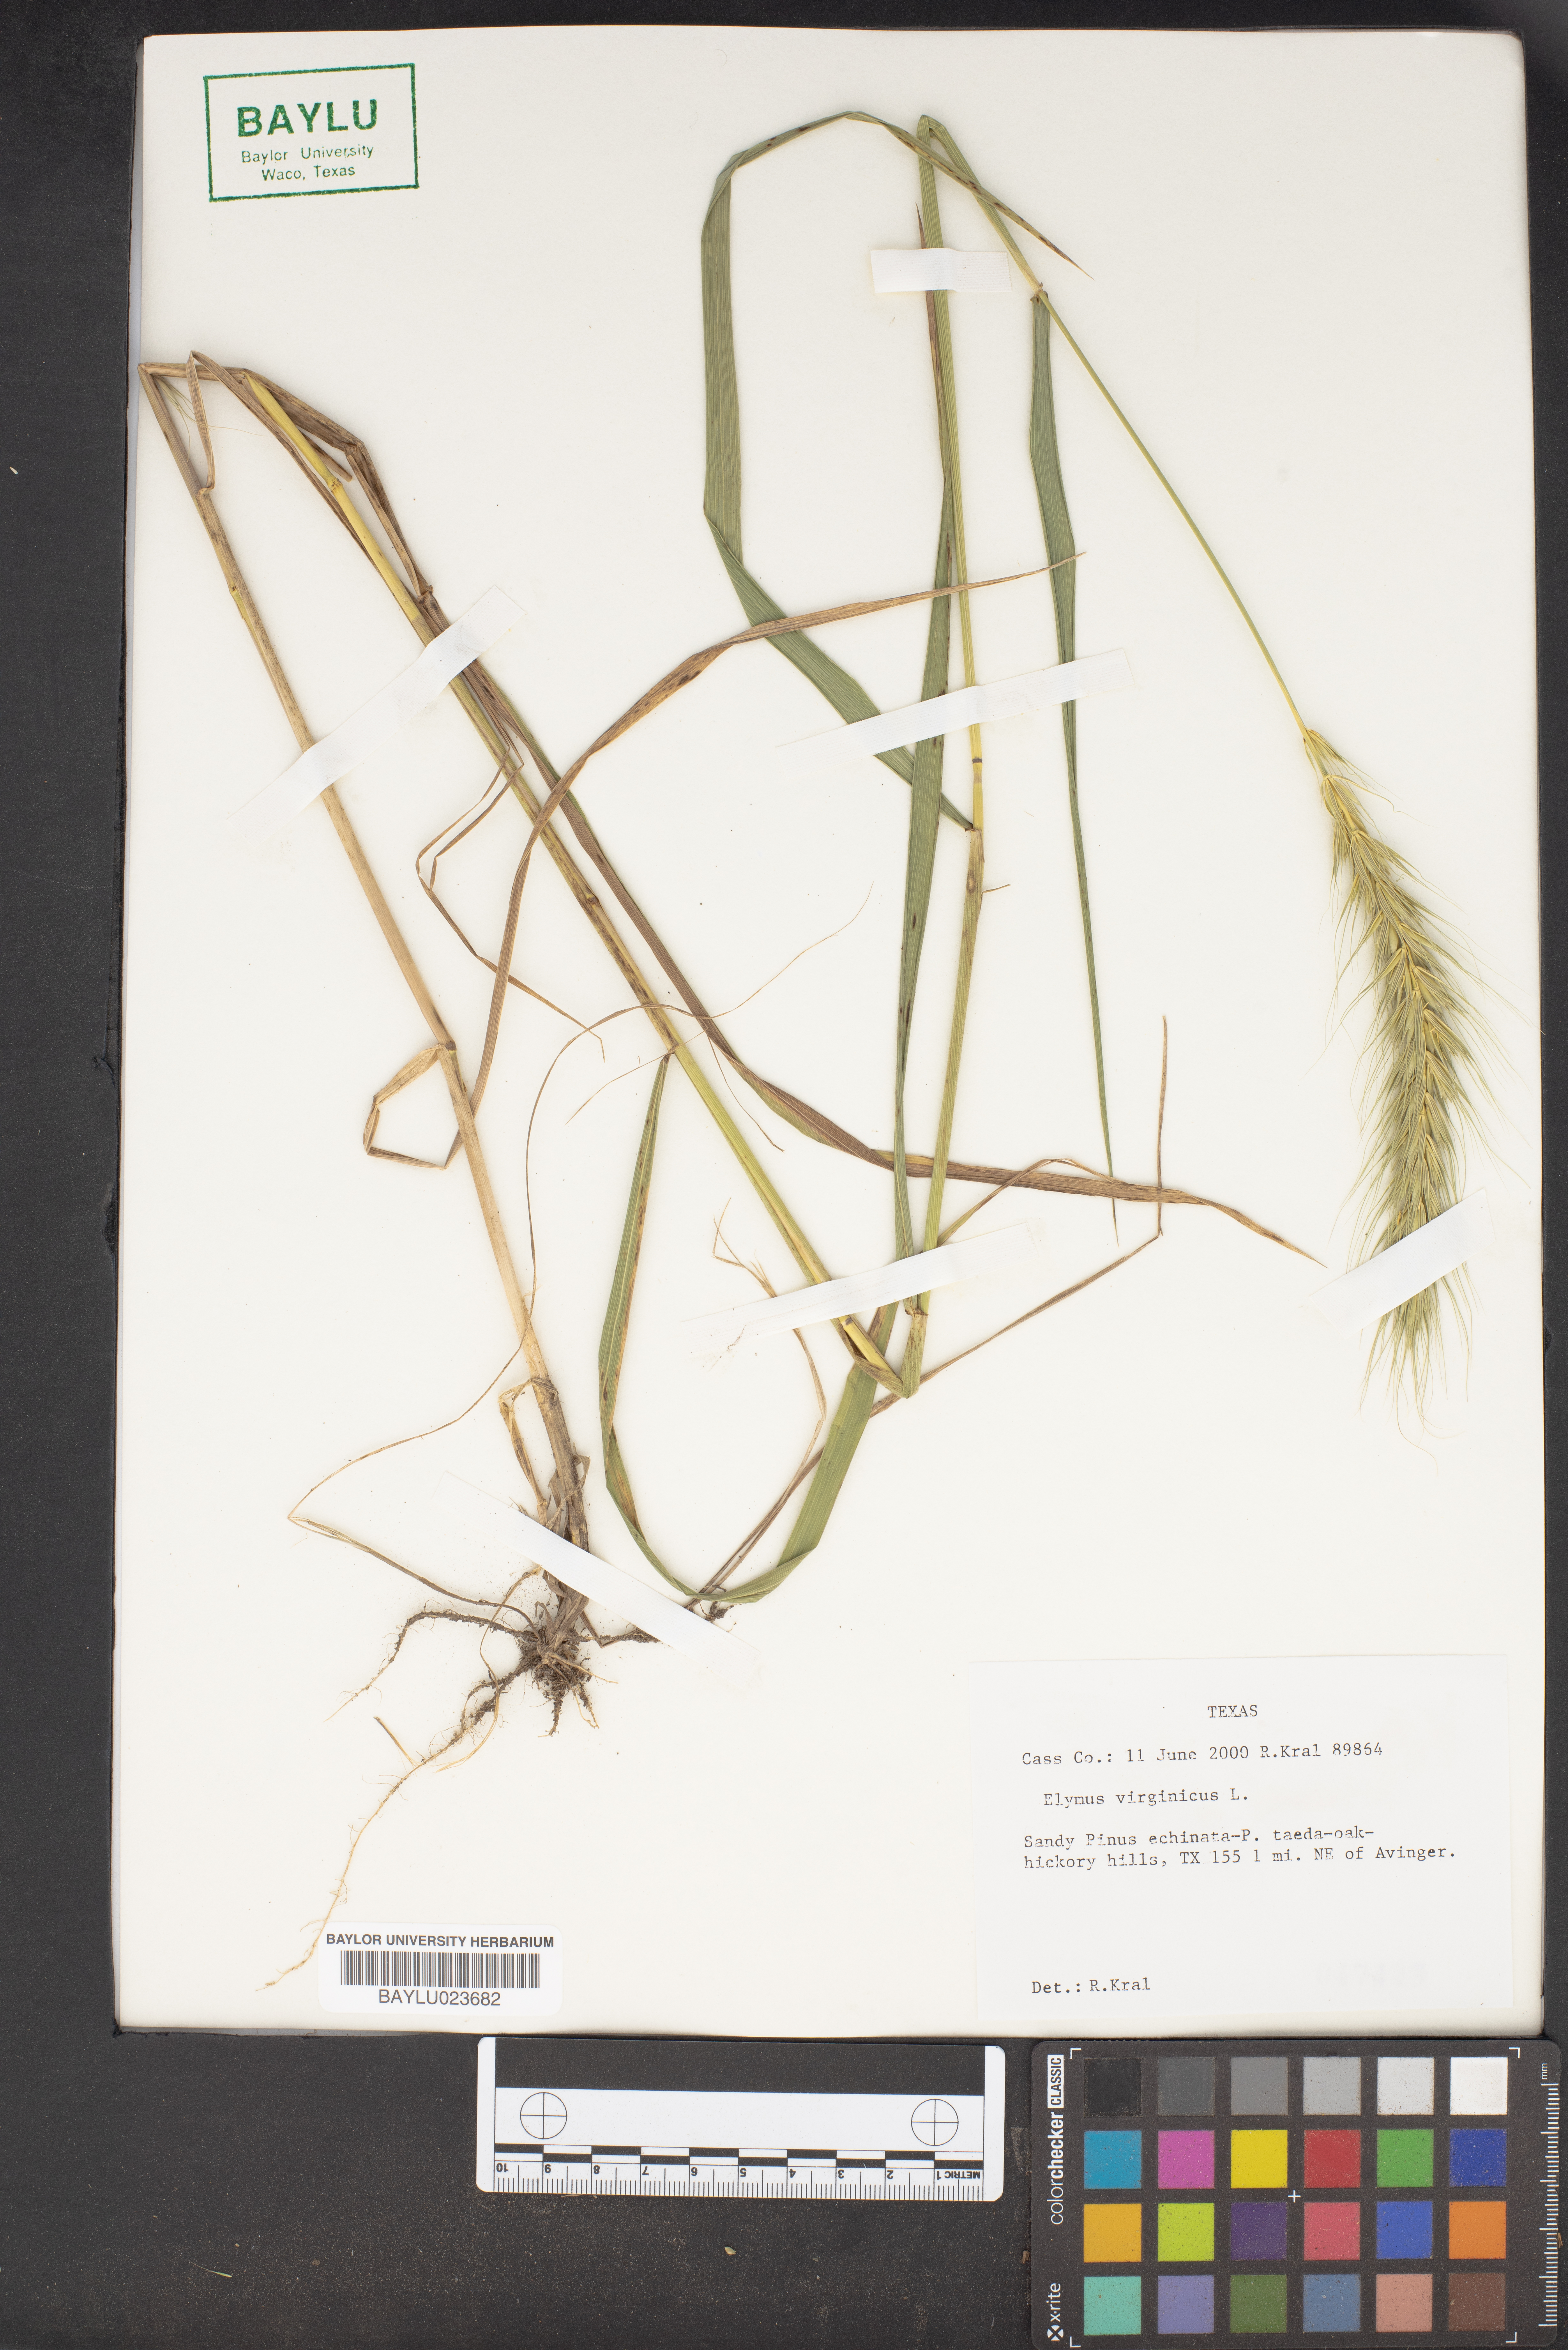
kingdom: Plantae
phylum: Tracheophyta
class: Liliopsida
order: Poales
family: Poaceae
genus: Elymus
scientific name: Elymus virginicus
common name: Common eastern wildrye
